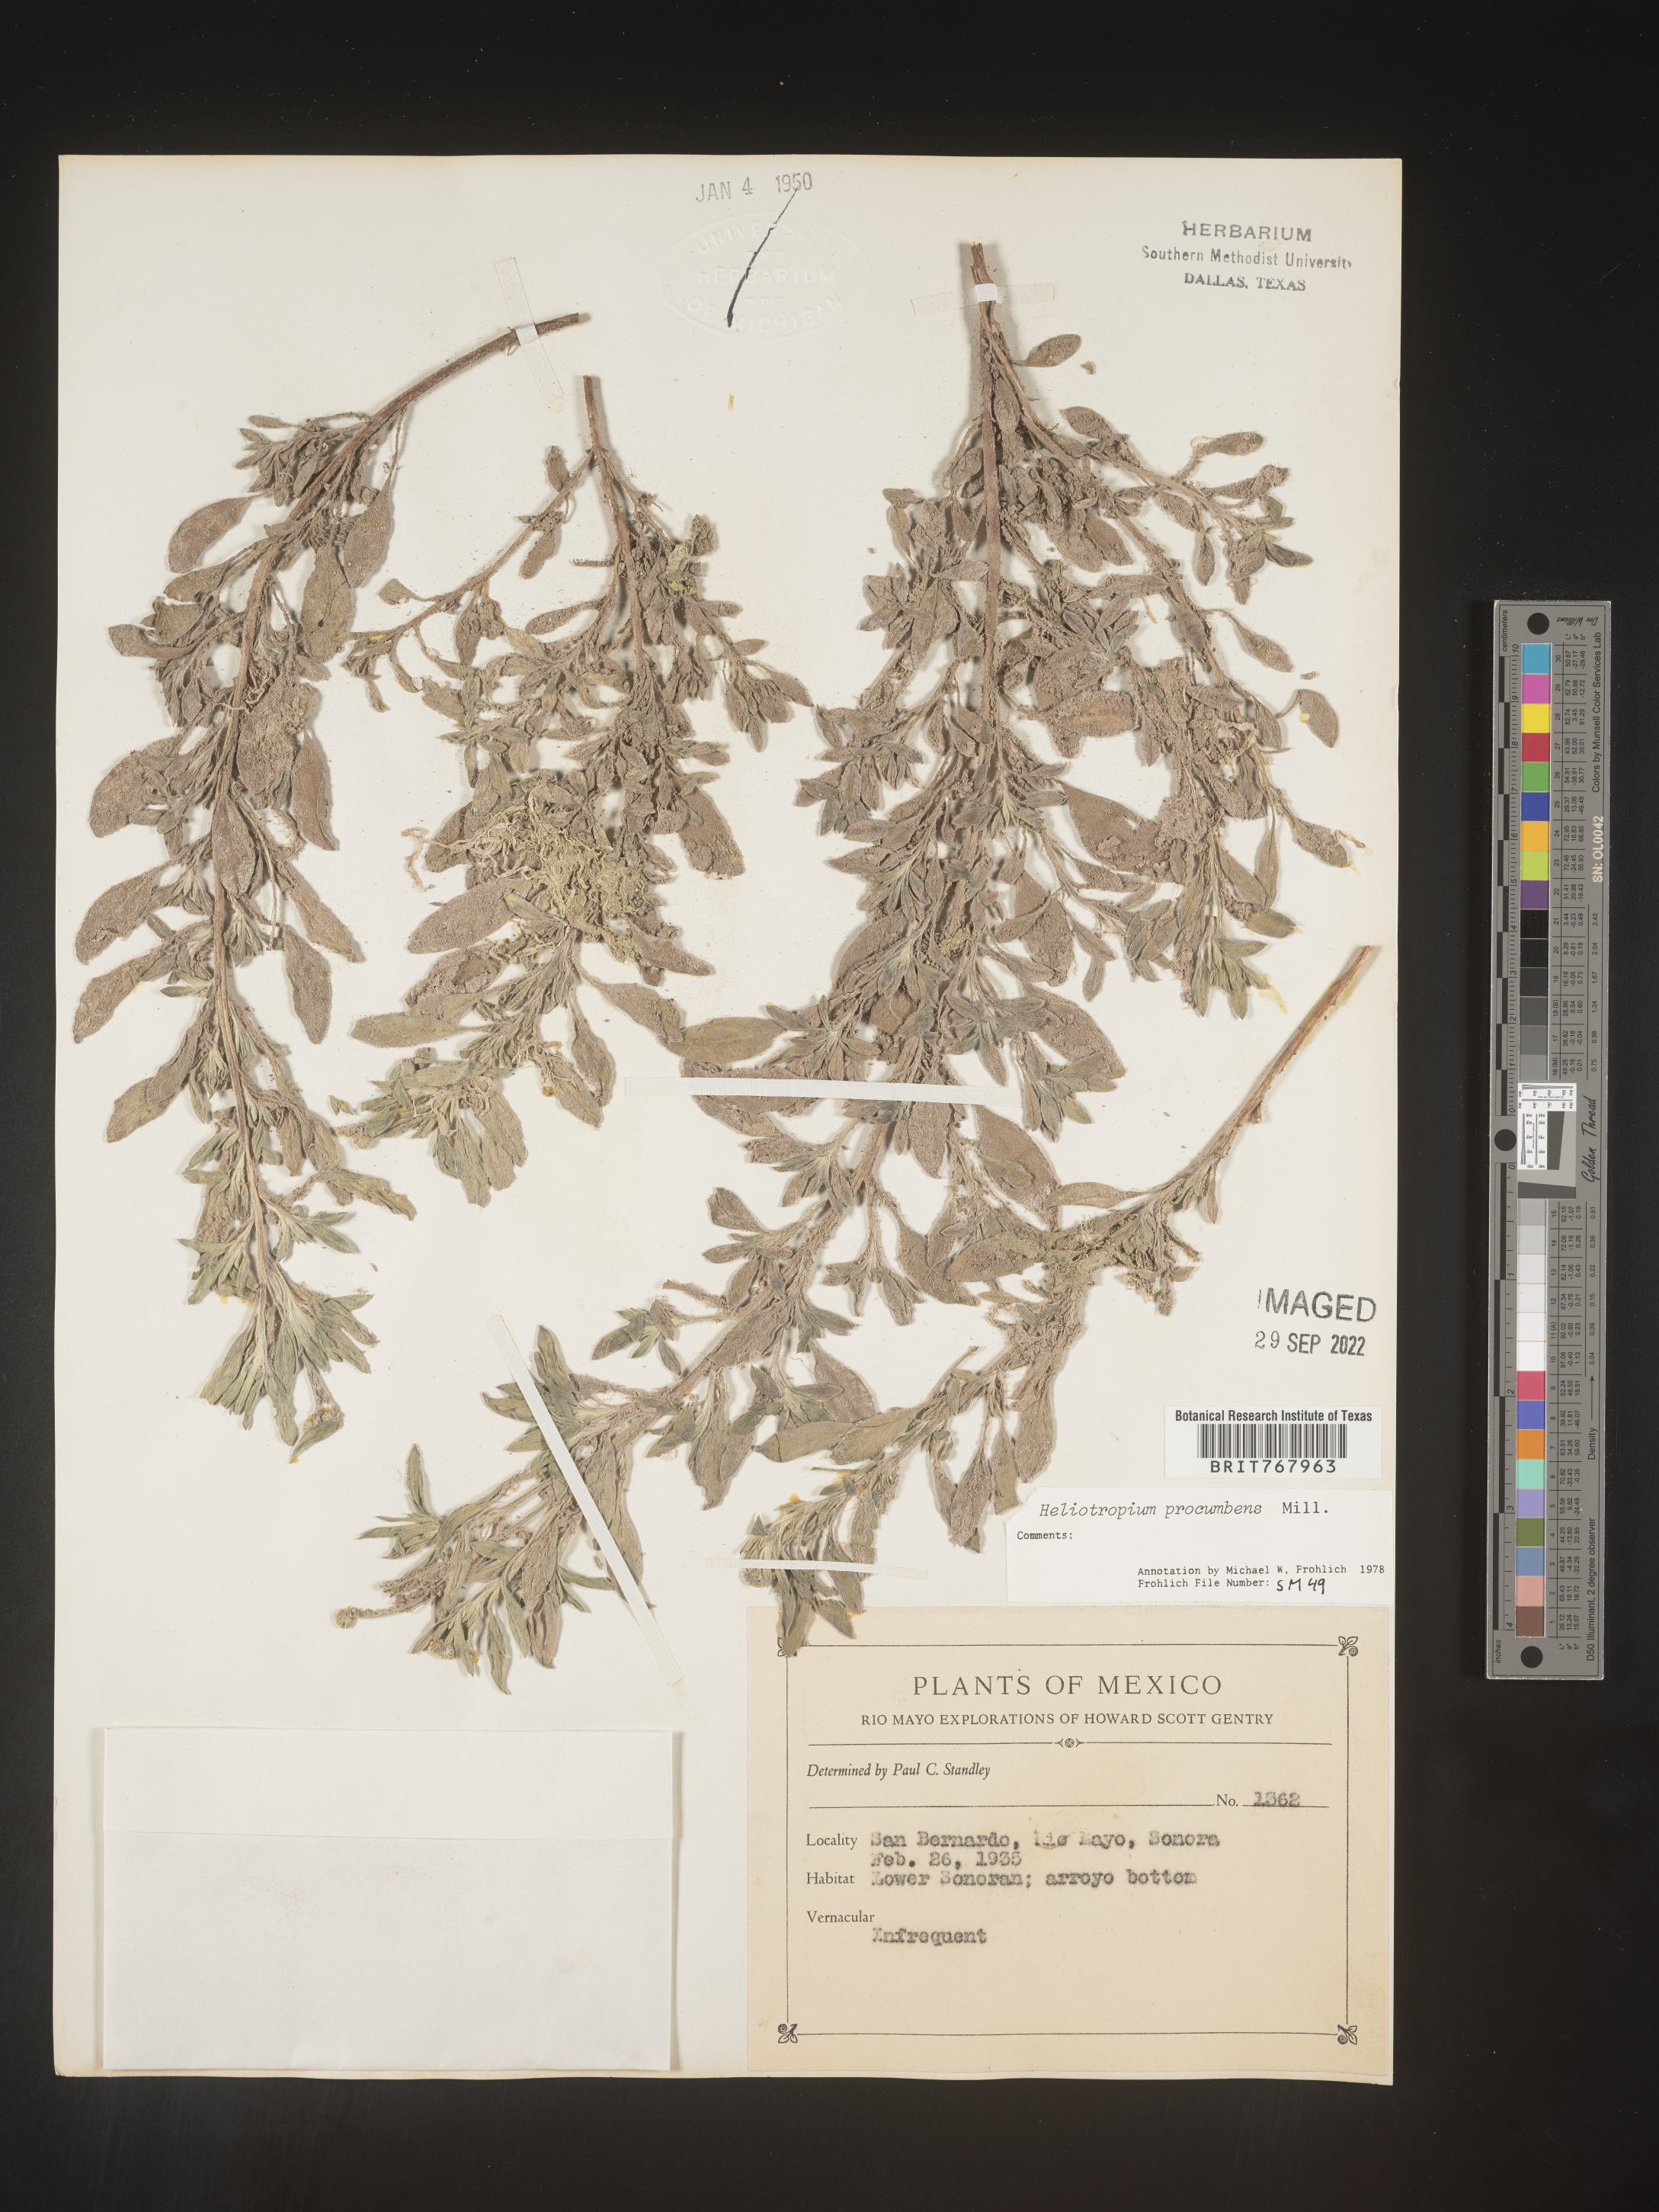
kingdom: Plantae
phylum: Tracheophyta
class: Magnoliopsida
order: Boraginales
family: Heliotropiaceae
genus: Heliotropium
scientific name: Heliotropium
